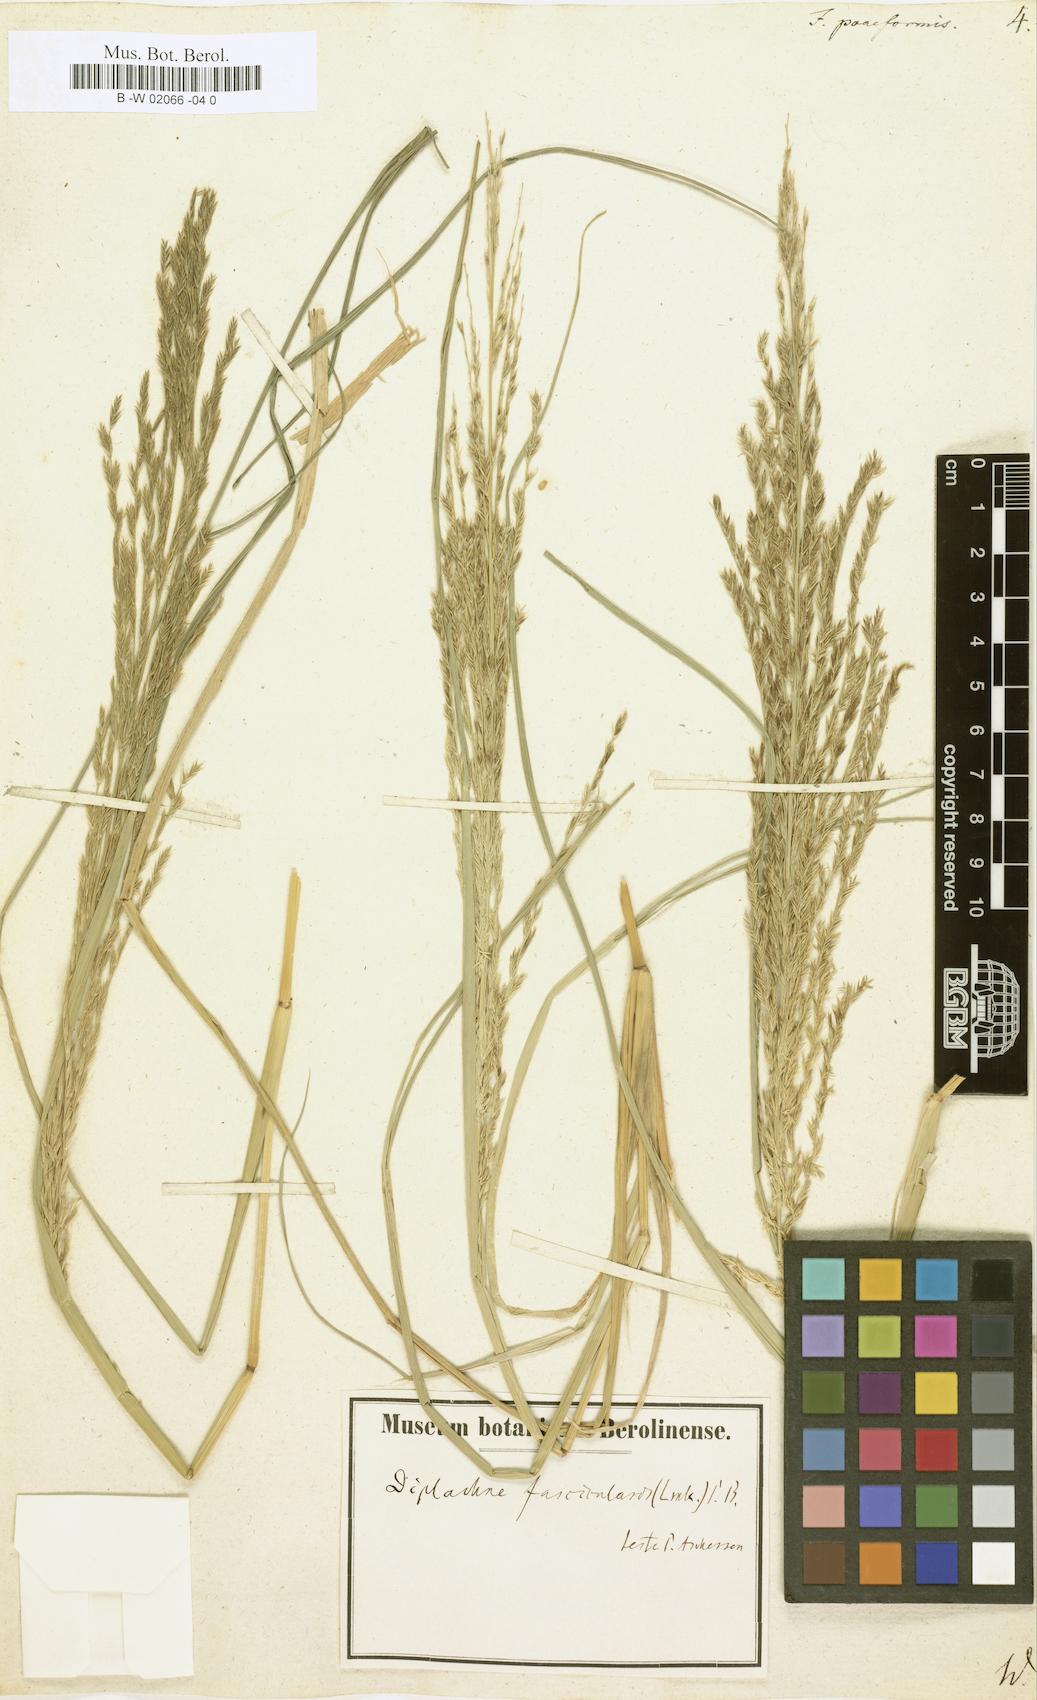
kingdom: Plantae
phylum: Tracheophyta
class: Liliopsida
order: Poales
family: Poaceae
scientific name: Poaceae
